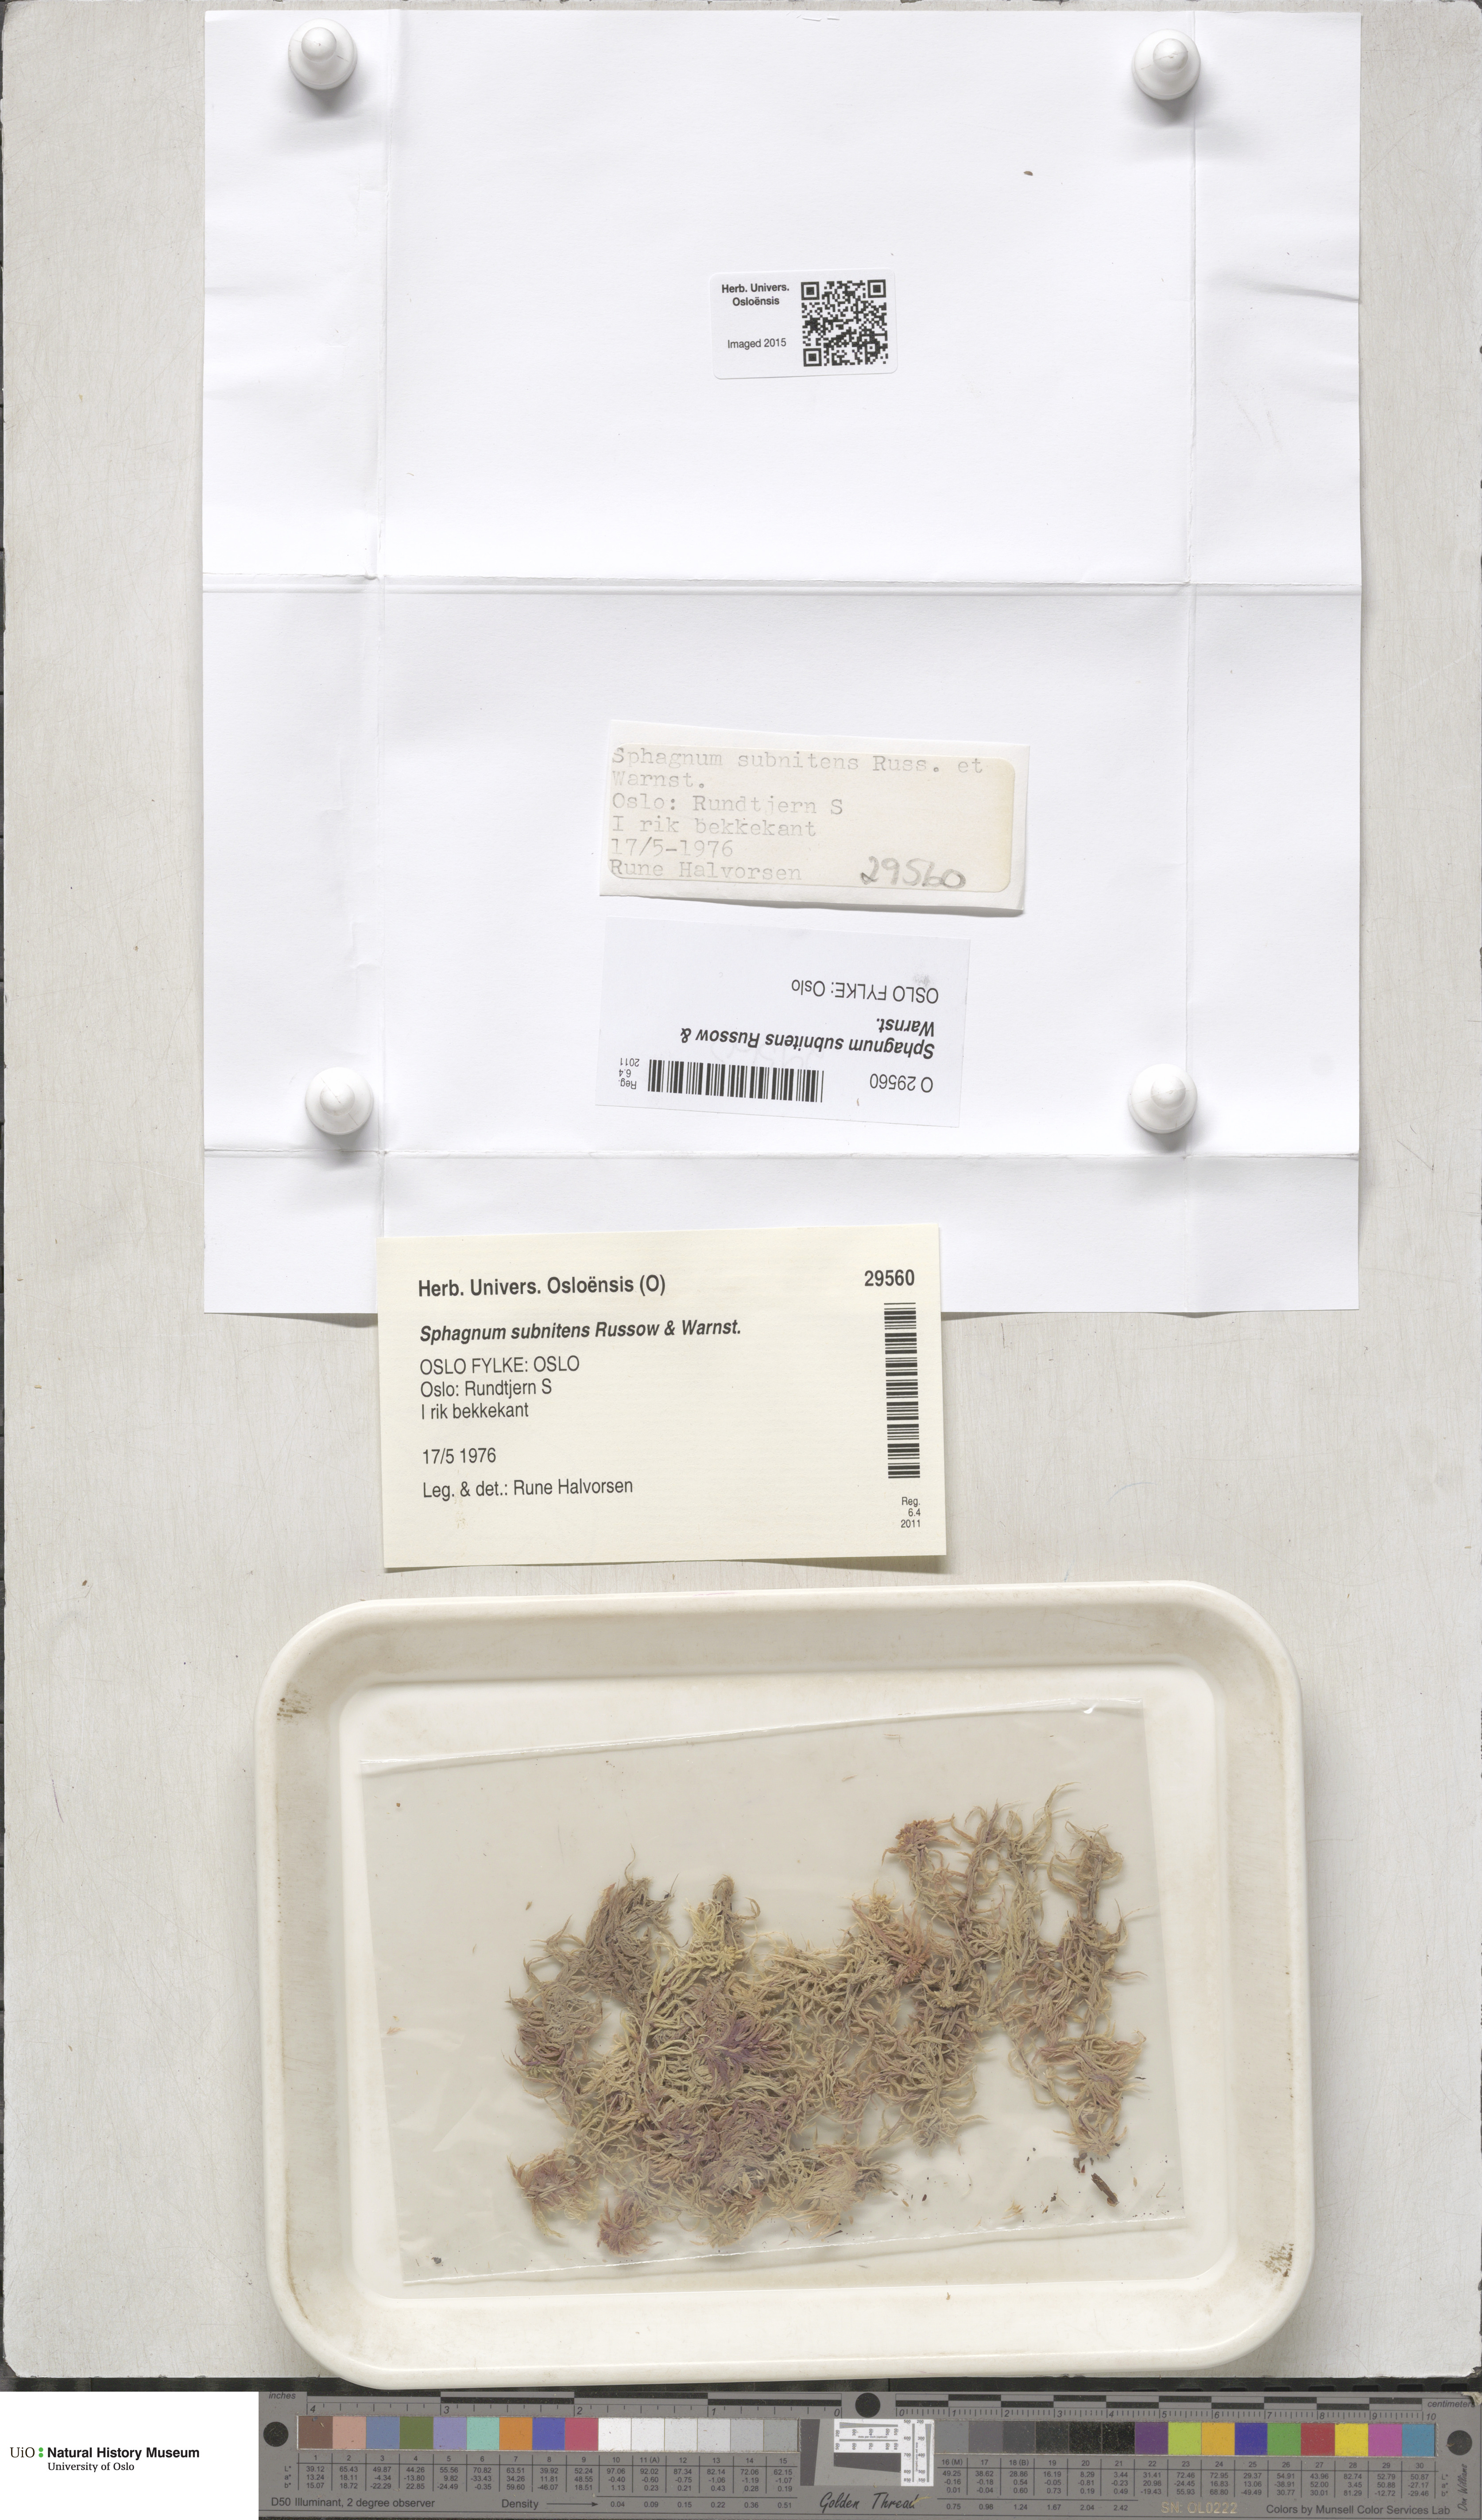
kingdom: Plantae
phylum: Bryophyta
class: Sphagnopsida
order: Sphagnales
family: Sphagnaceae
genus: Sphagnum
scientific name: Sphagnum subnitens
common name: Lustrous bog-moss
